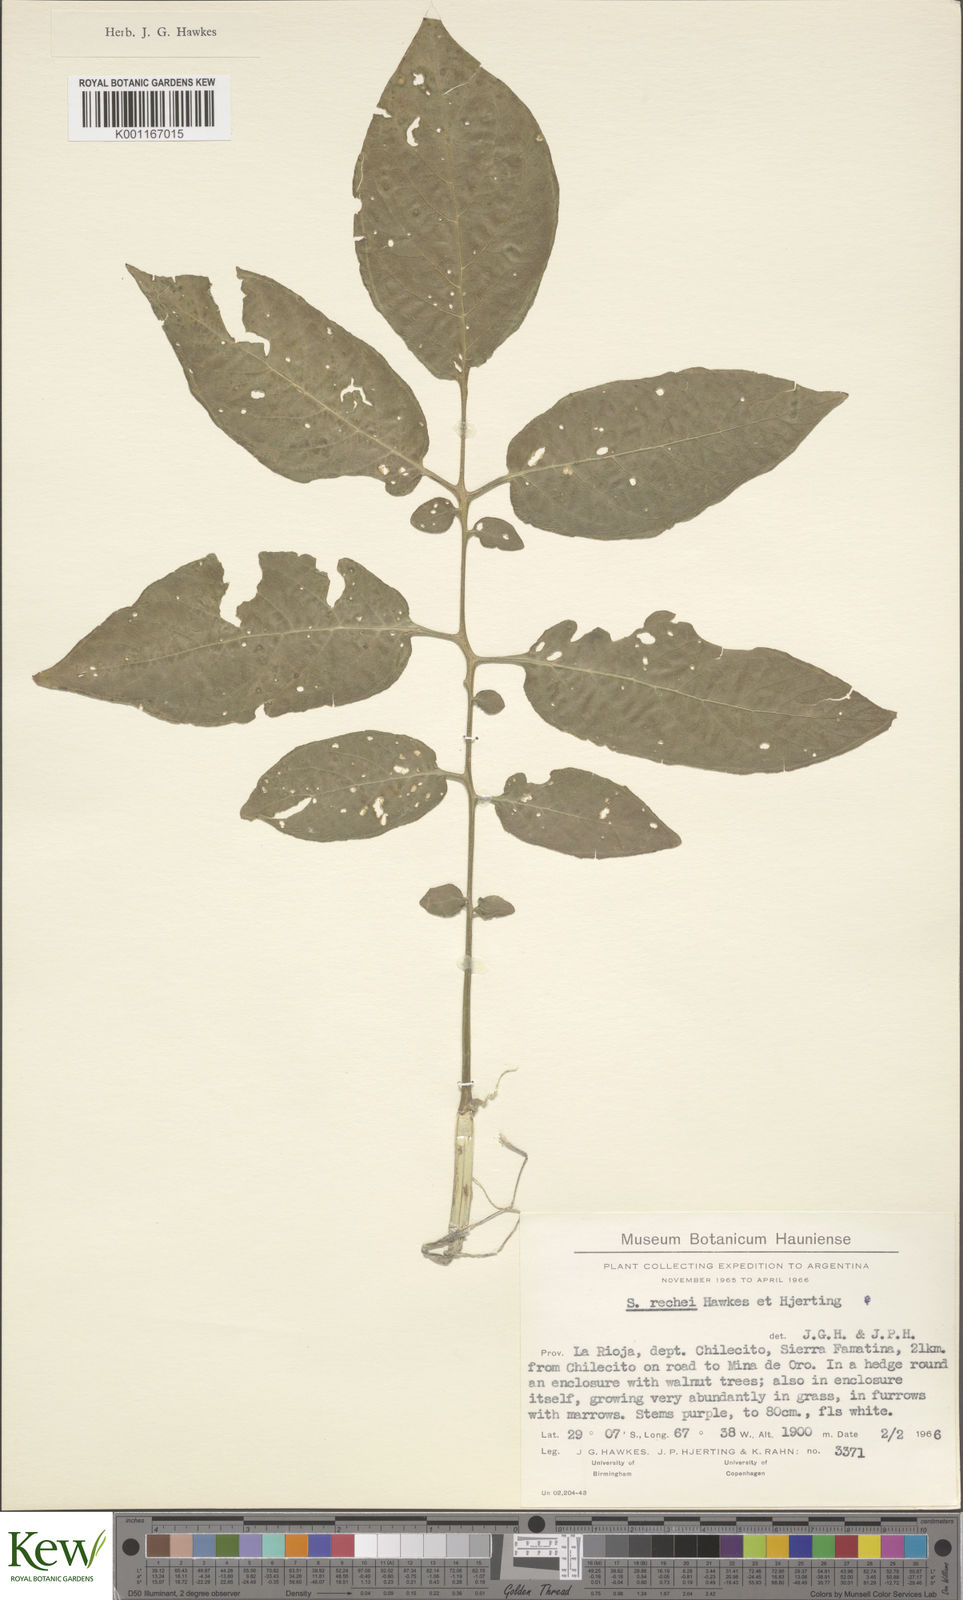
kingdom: Plantae
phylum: Tracheophyta
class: Magnoliopsida
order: Solanales
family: Solanaceae
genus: Solanum
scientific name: Solanum rechei
